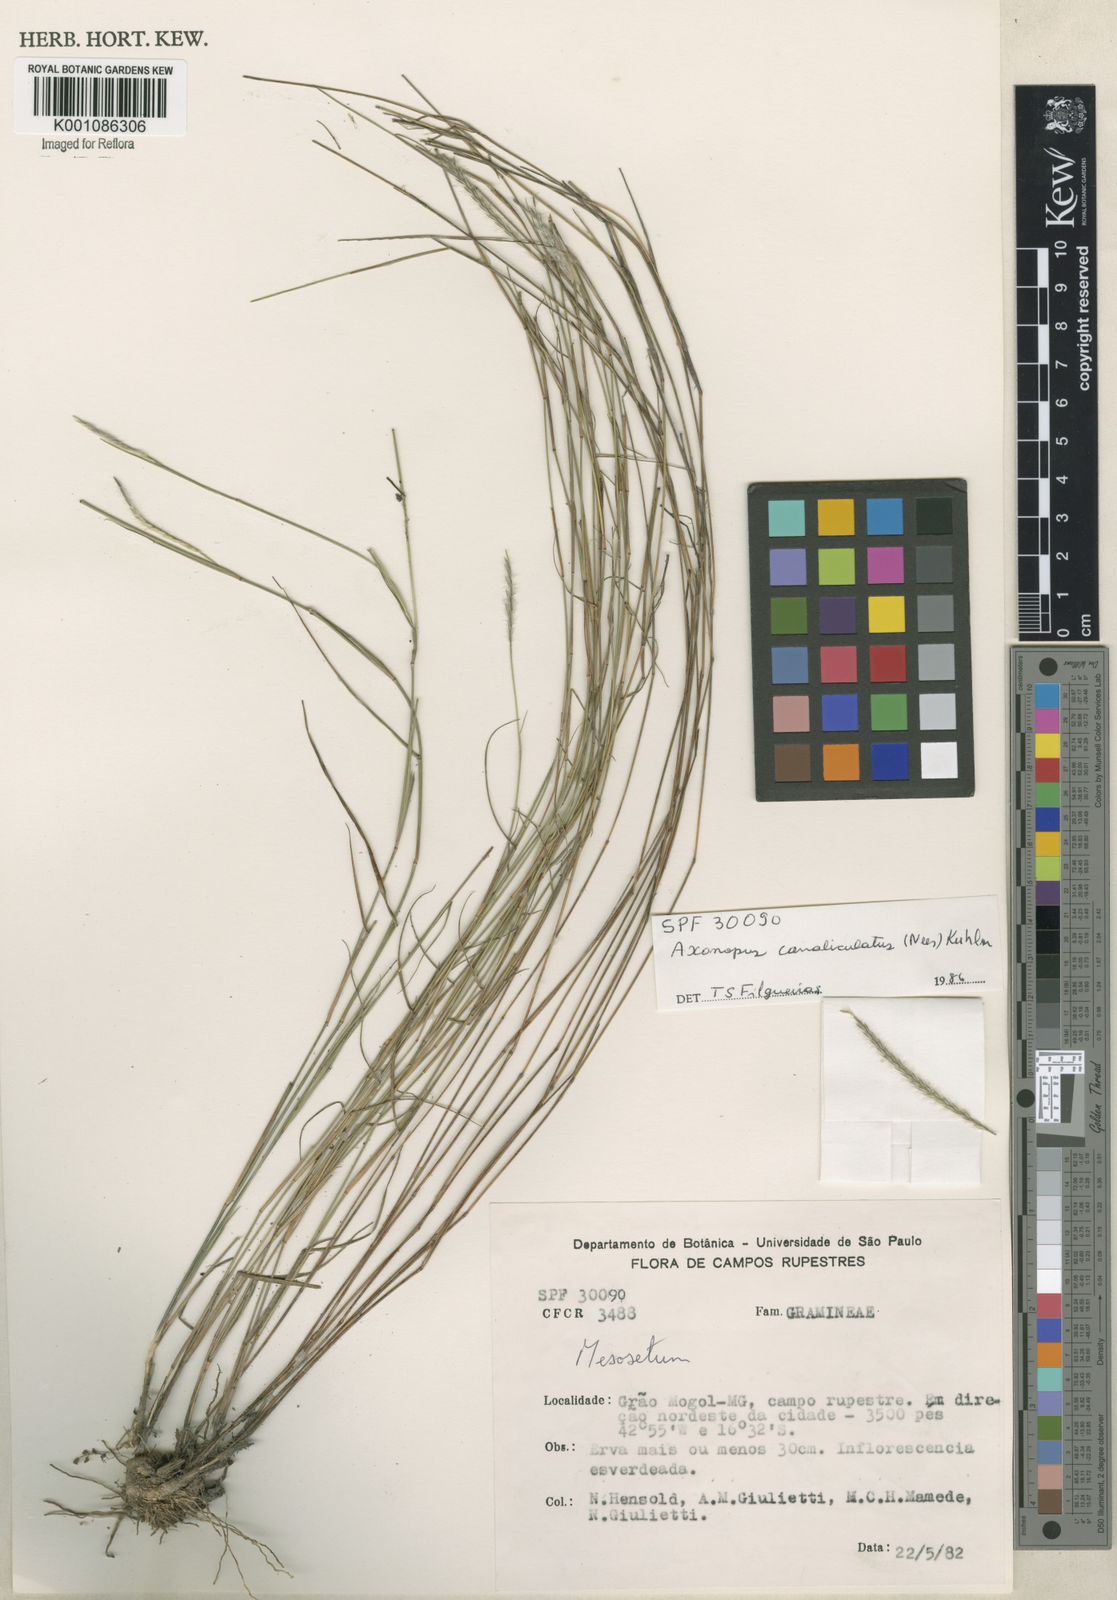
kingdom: Plantae
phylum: Tracheophyta
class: Liliopsida
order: Poales
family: Poaceae
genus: Axonopus
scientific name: Axonopus fastigiatus
